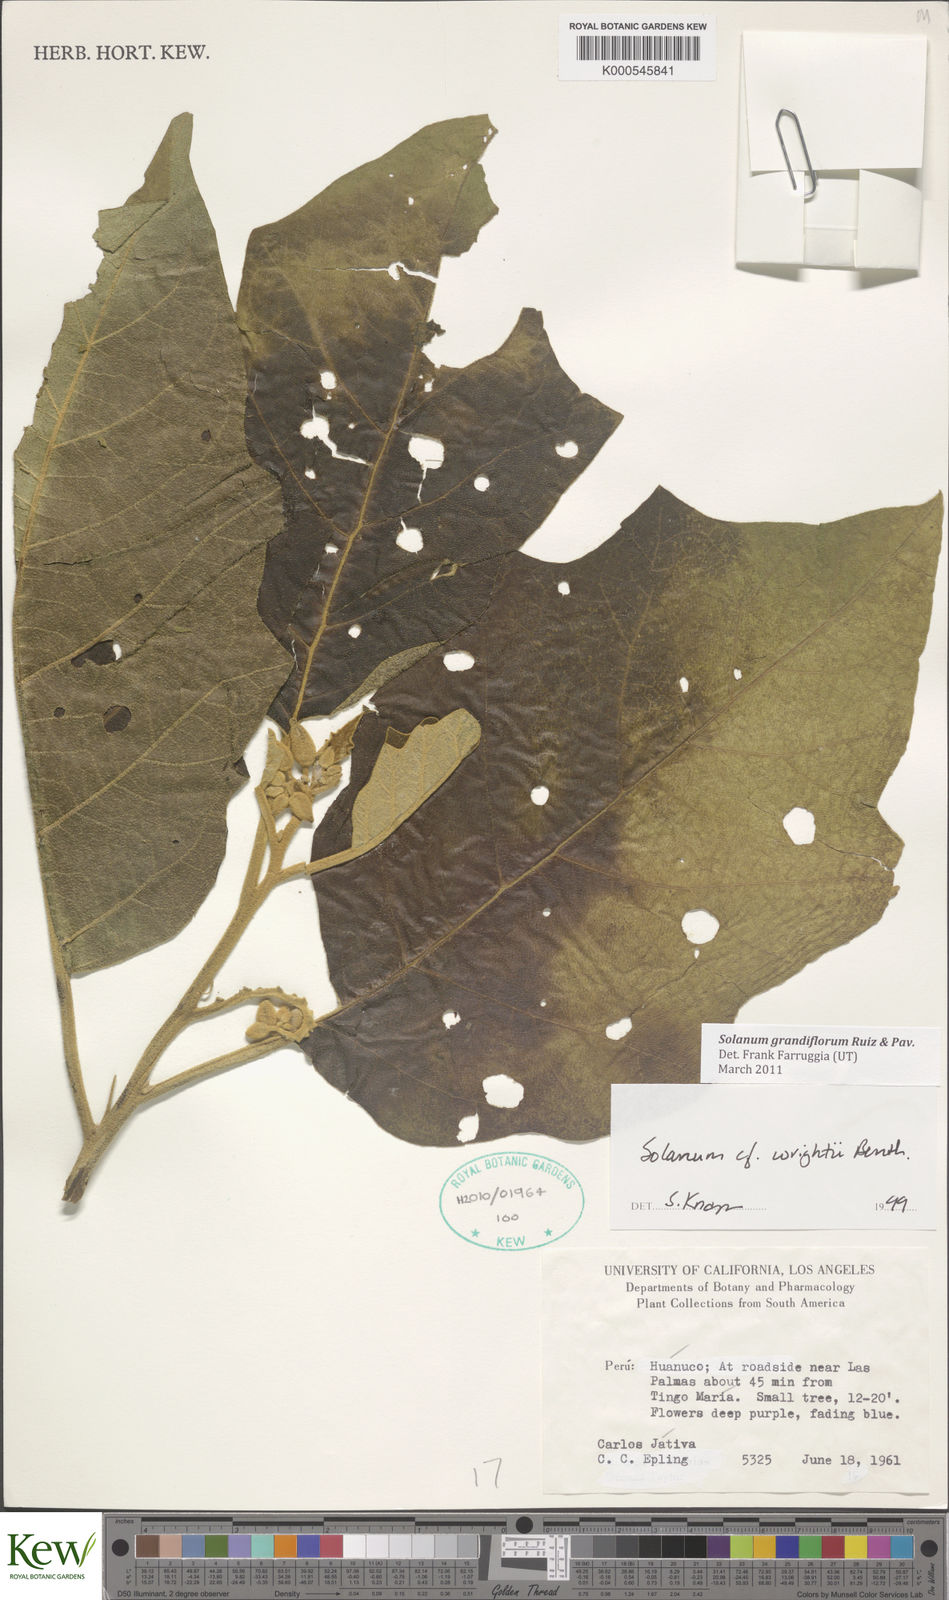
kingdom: Plantae
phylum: Tracheophyta
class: Magnoliopsida
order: Solanales
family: Solanaceae
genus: Solanum
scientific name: Solanum grandiflorum
